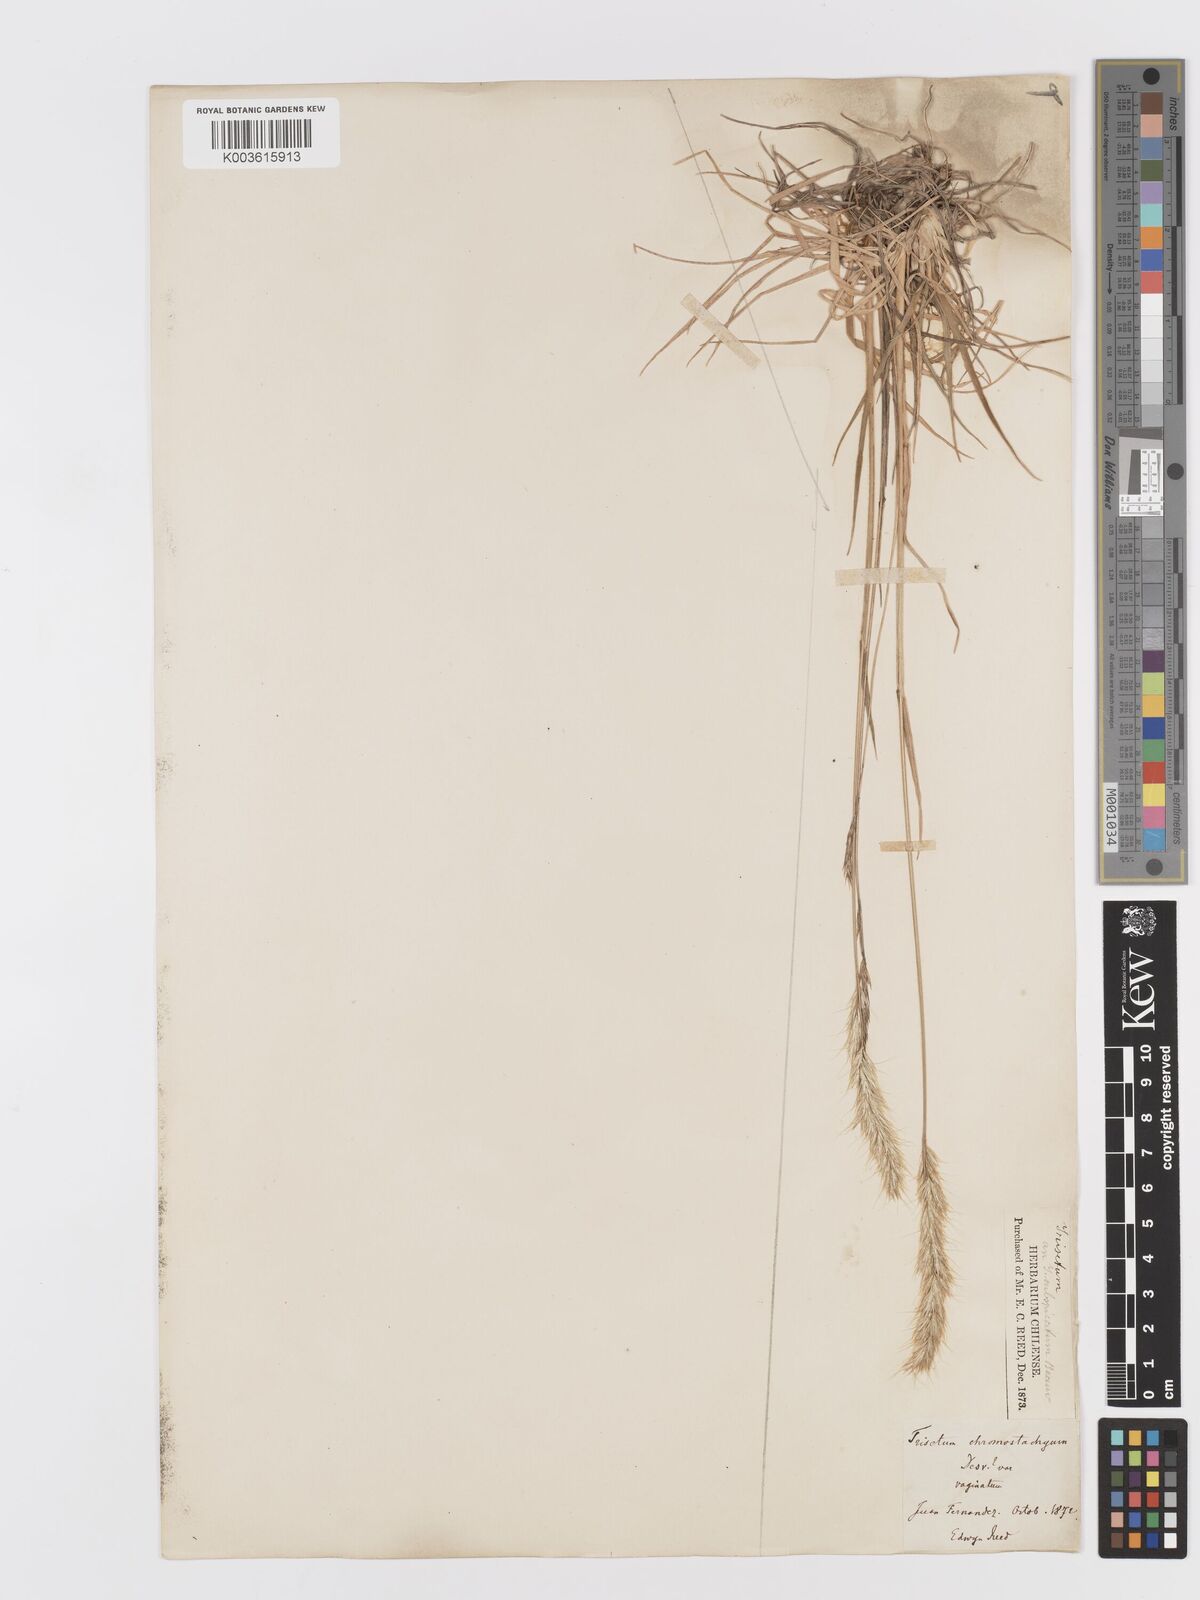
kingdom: Plantae
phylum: Tracheophyta
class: Liliopsida
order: Poales
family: Poaceae
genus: Trisetum
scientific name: Trisetum caudulatum
